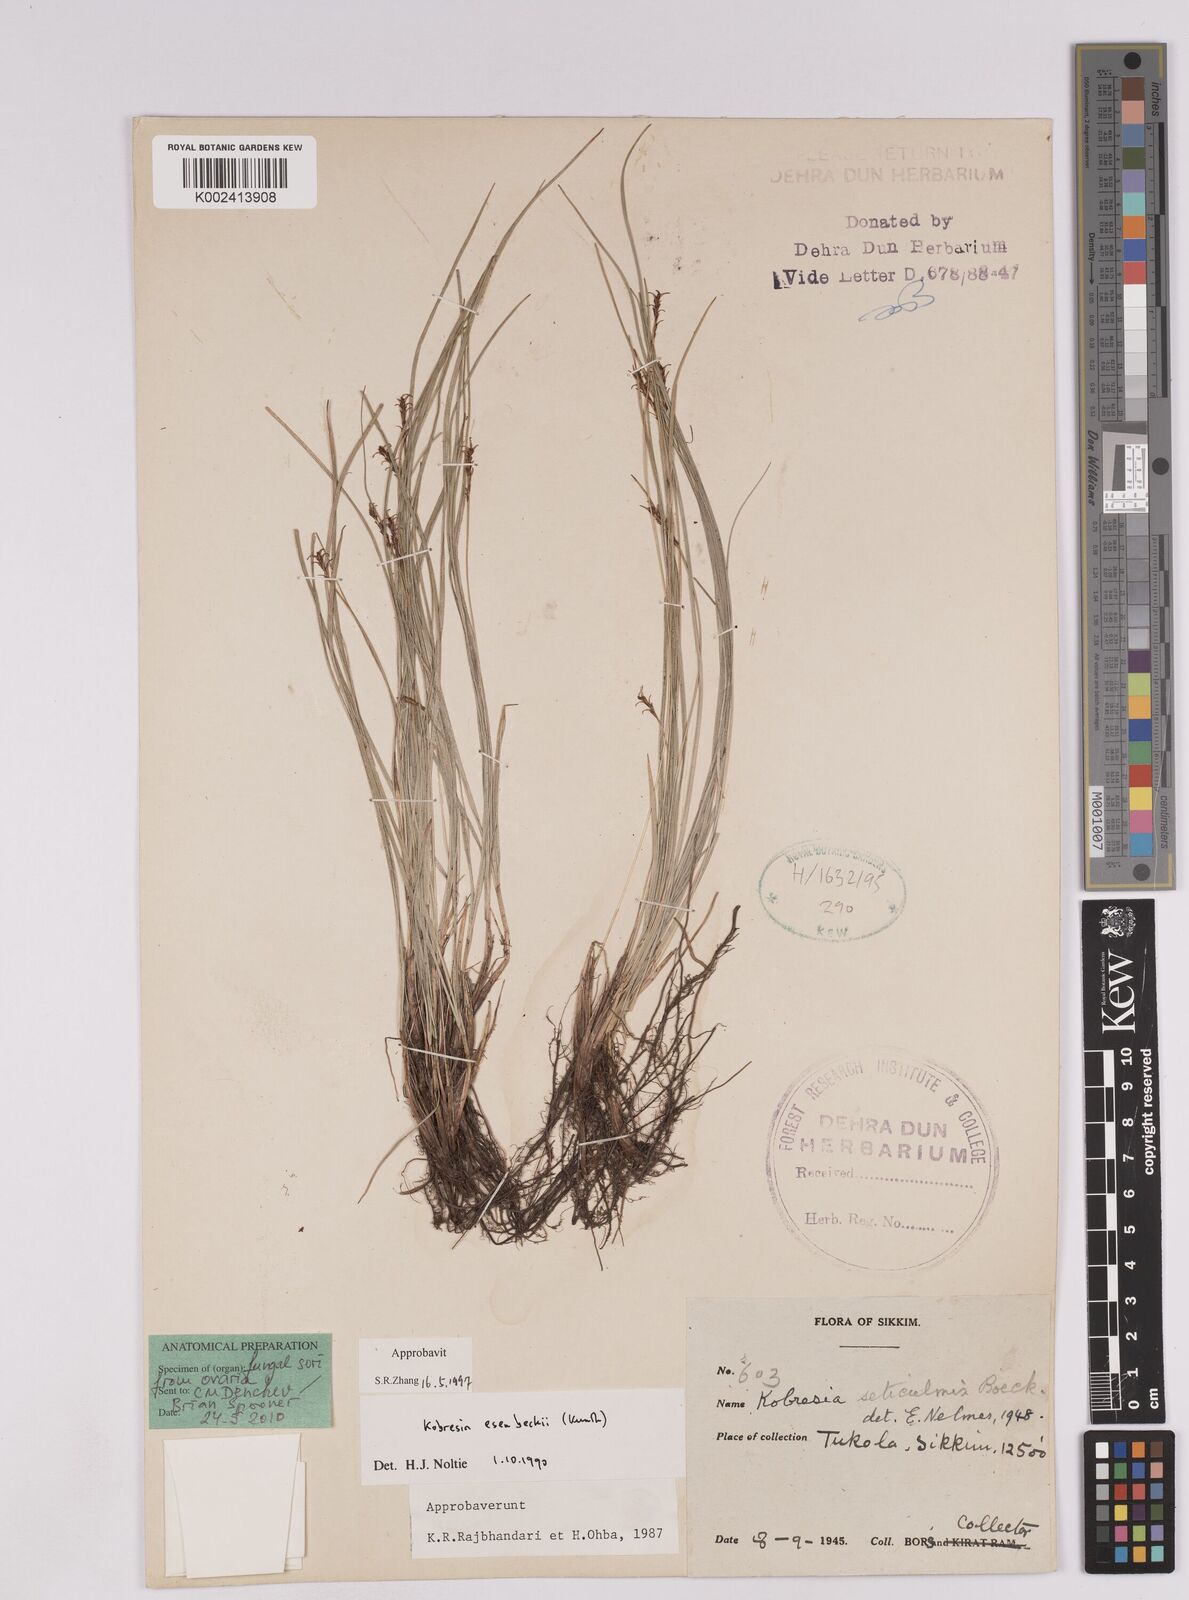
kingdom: Plantae
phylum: Tracheophyta
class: Liliopsida
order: Poales
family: Cyperaceae
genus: Carex
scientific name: Carex esenbeckii
